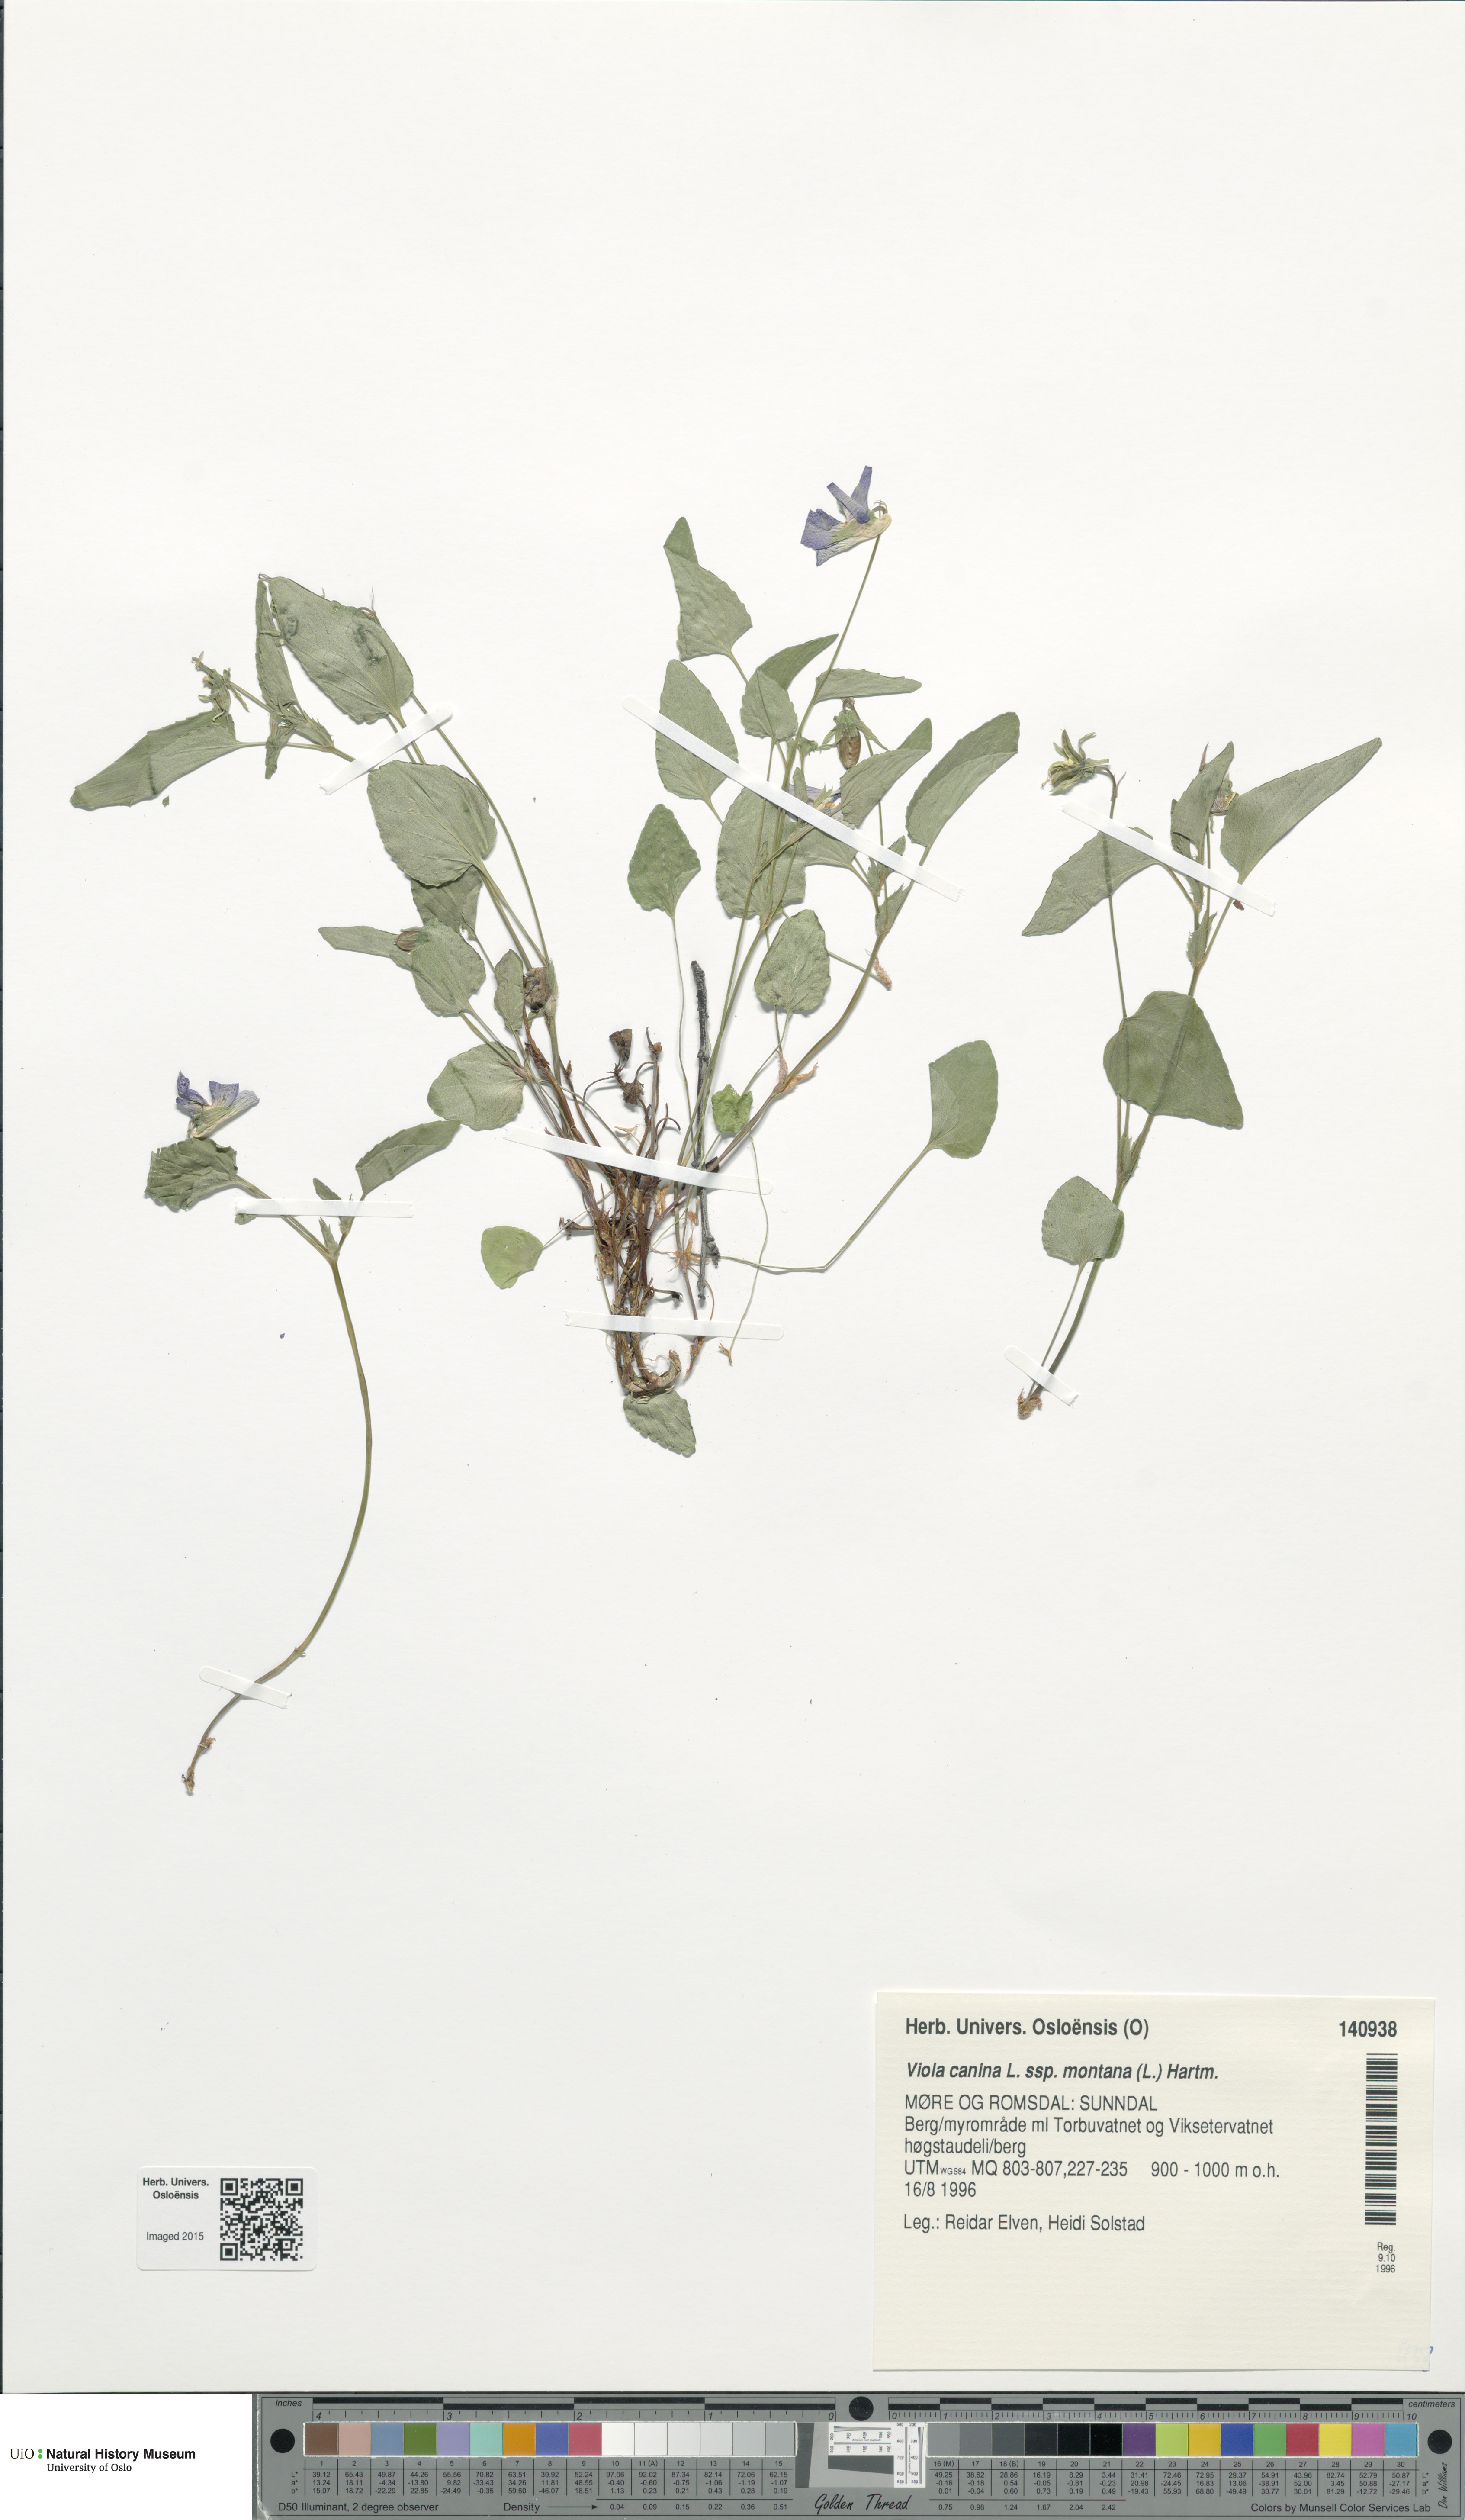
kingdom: Plantae
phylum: Tracheophyta
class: Magnoliopsida
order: Malpighiales
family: Violaceae
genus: Viola
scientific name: Viola ruppii
